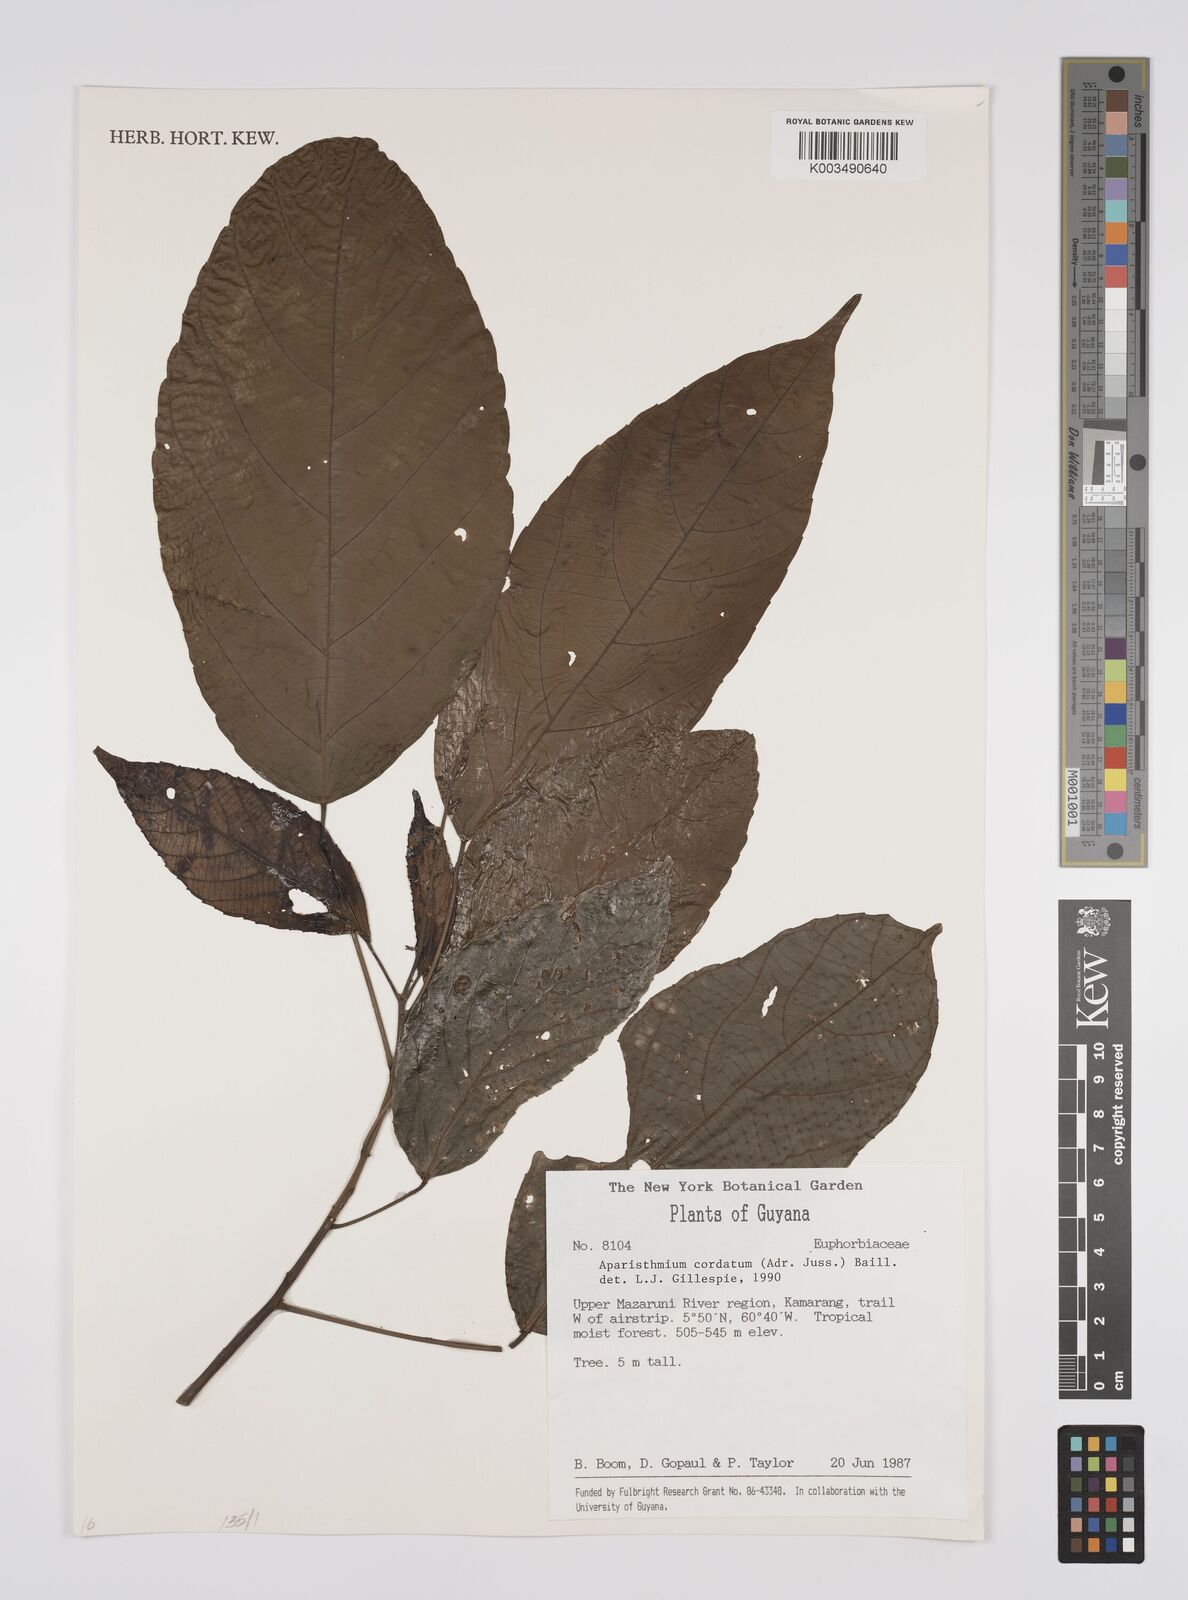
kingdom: Plantae
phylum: Tracheophyta
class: Magnoliopsida
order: Malpighiales
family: Euphorbiaceae
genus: Aparisthmium
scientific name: Aparisthmium cordatum
